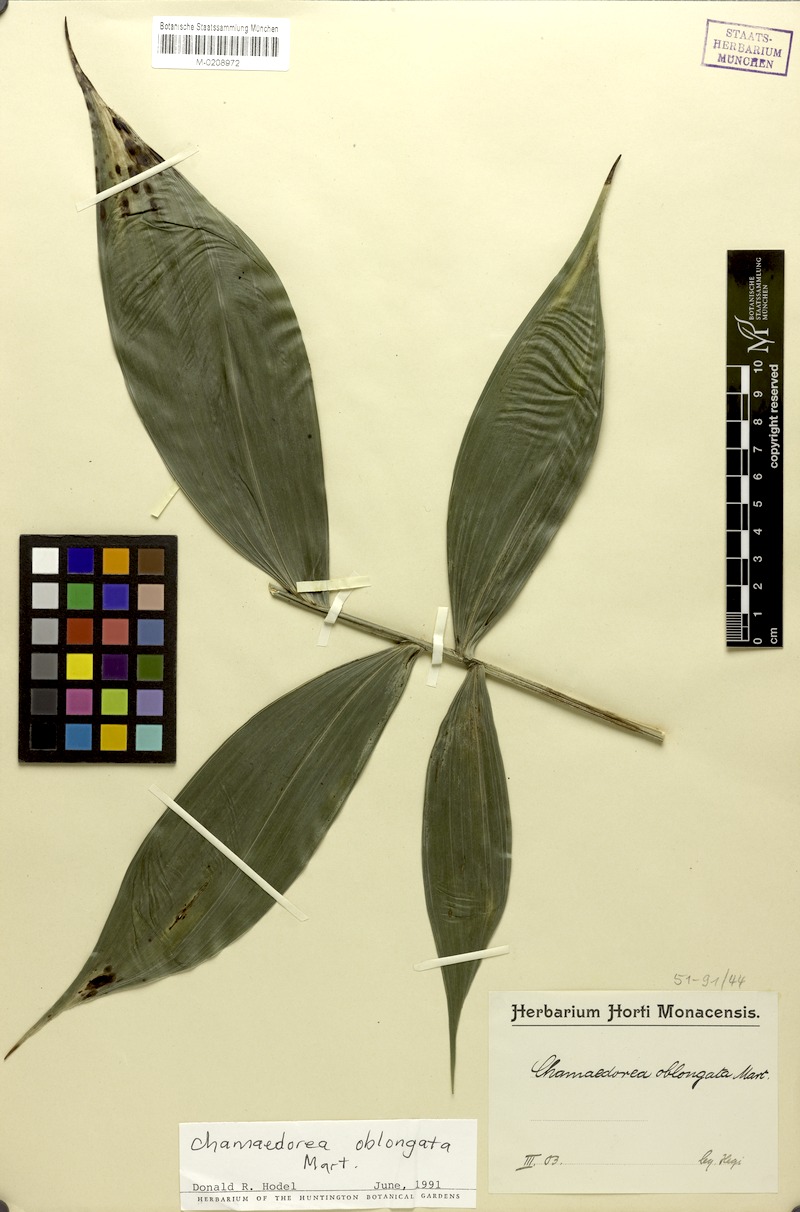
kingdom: Plantae
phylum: Tracheophyta
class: Liliopsida
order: Arecales
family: Arecaceae
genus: Chamaedorea
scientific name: Chamaedorea oblongata
